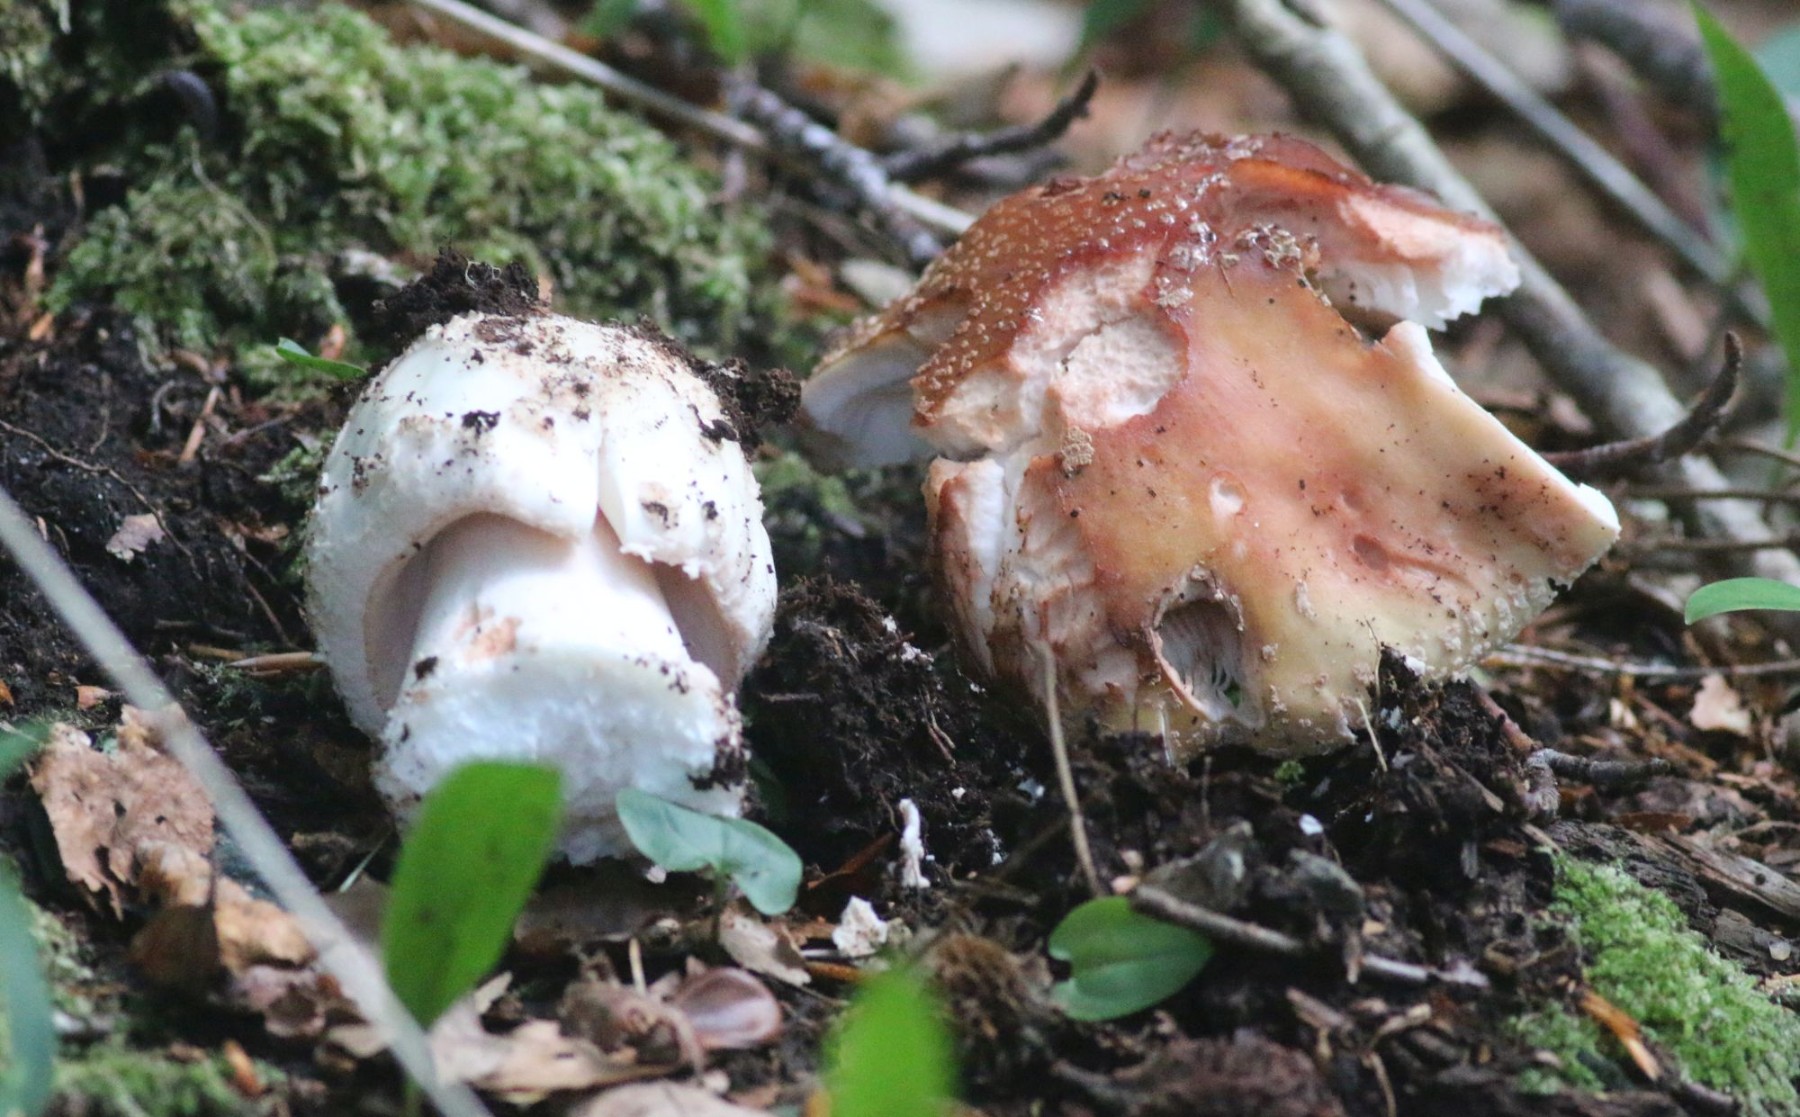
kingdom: Fungi
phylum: Basidiomycota
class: Agaricomycetes
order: Agaricales
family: Amanitaceae
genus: Amanita
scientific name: Amanita rubescens
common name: rødmende fluesvamp
